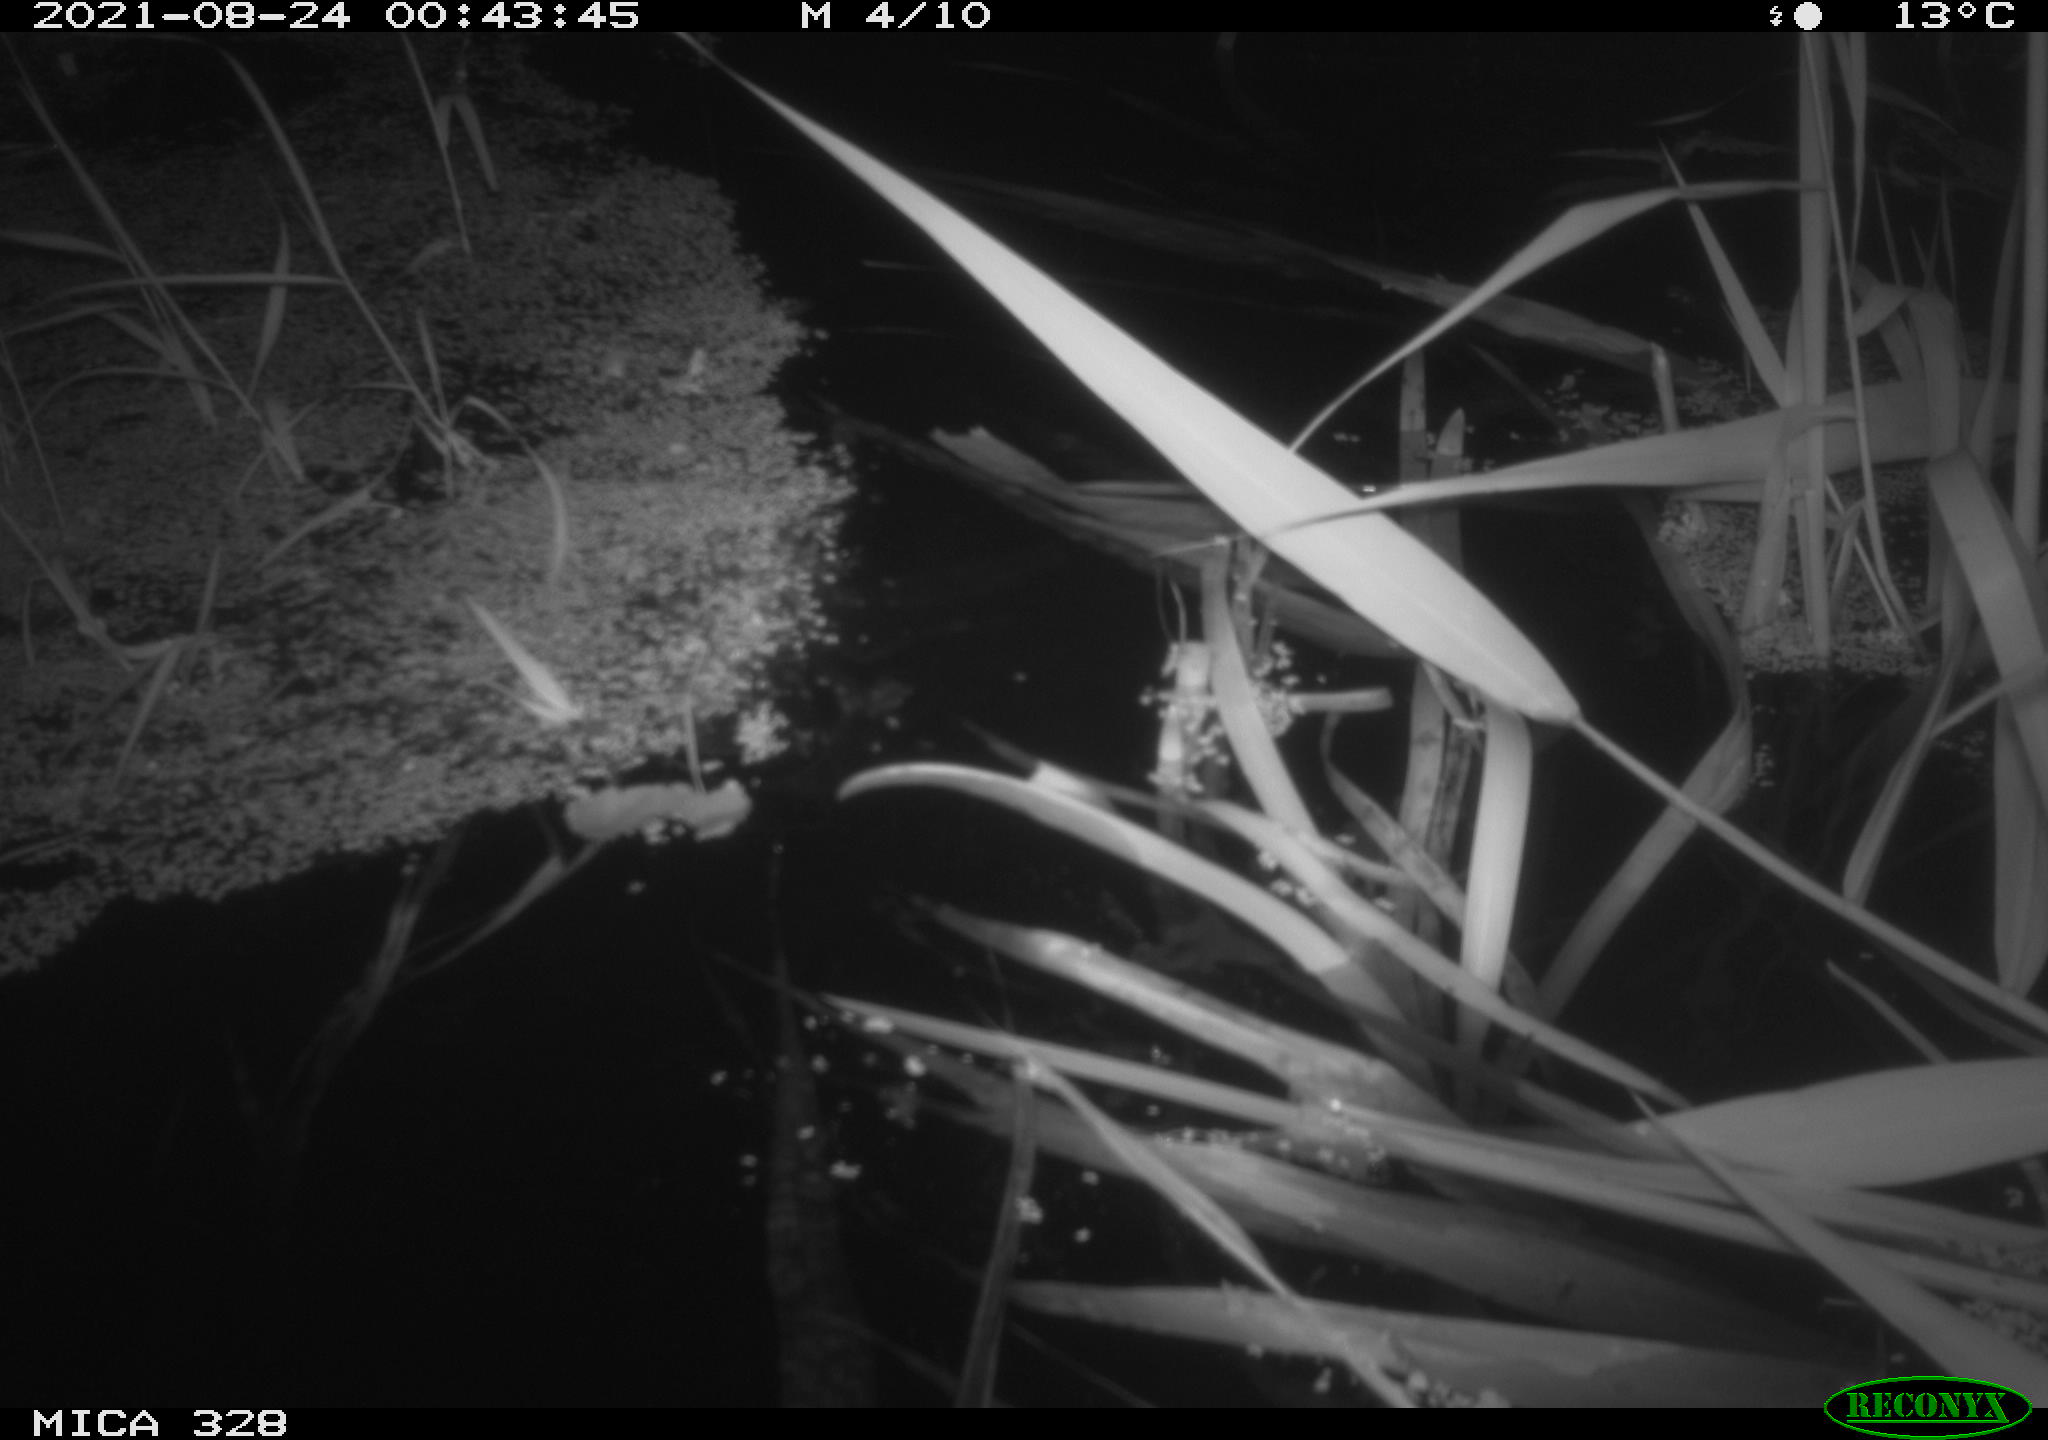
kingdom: Animalia
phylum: Chordata
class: Mammalia
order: Rodentia
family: Cricetidae
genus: Ondatra
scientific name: Ondatra zibethicus
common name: Muskrat
